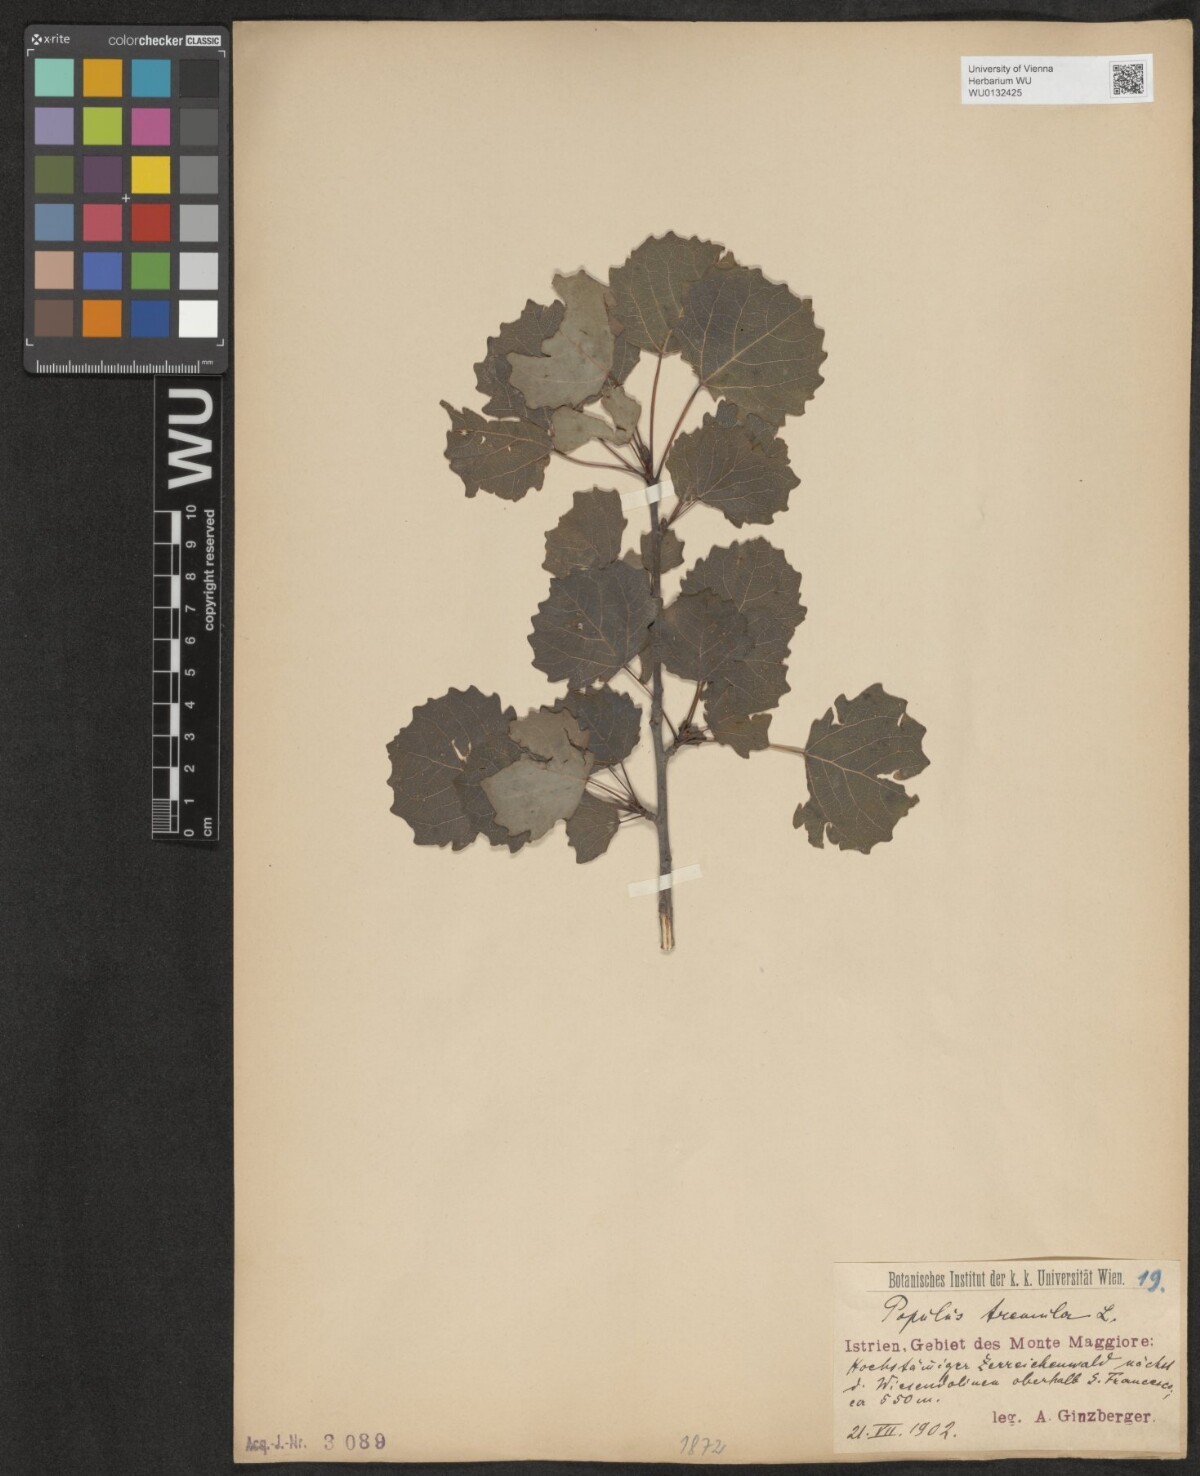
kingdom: Plantae
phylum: Tracheophyta
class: Magnoliopsida
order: Malpighiales
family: Salicaceae
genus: Populus
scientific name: Populus tremula
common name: European aspen
